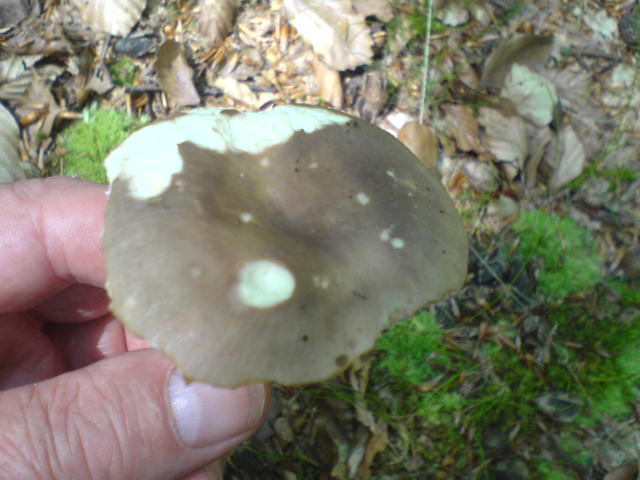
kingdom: Fungi
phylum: Basidiomycota
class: Agaricomycetes
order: Russulales
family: Russulaceae
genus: Russula
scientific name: Russula cyanoxantha
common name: broget skørhat
